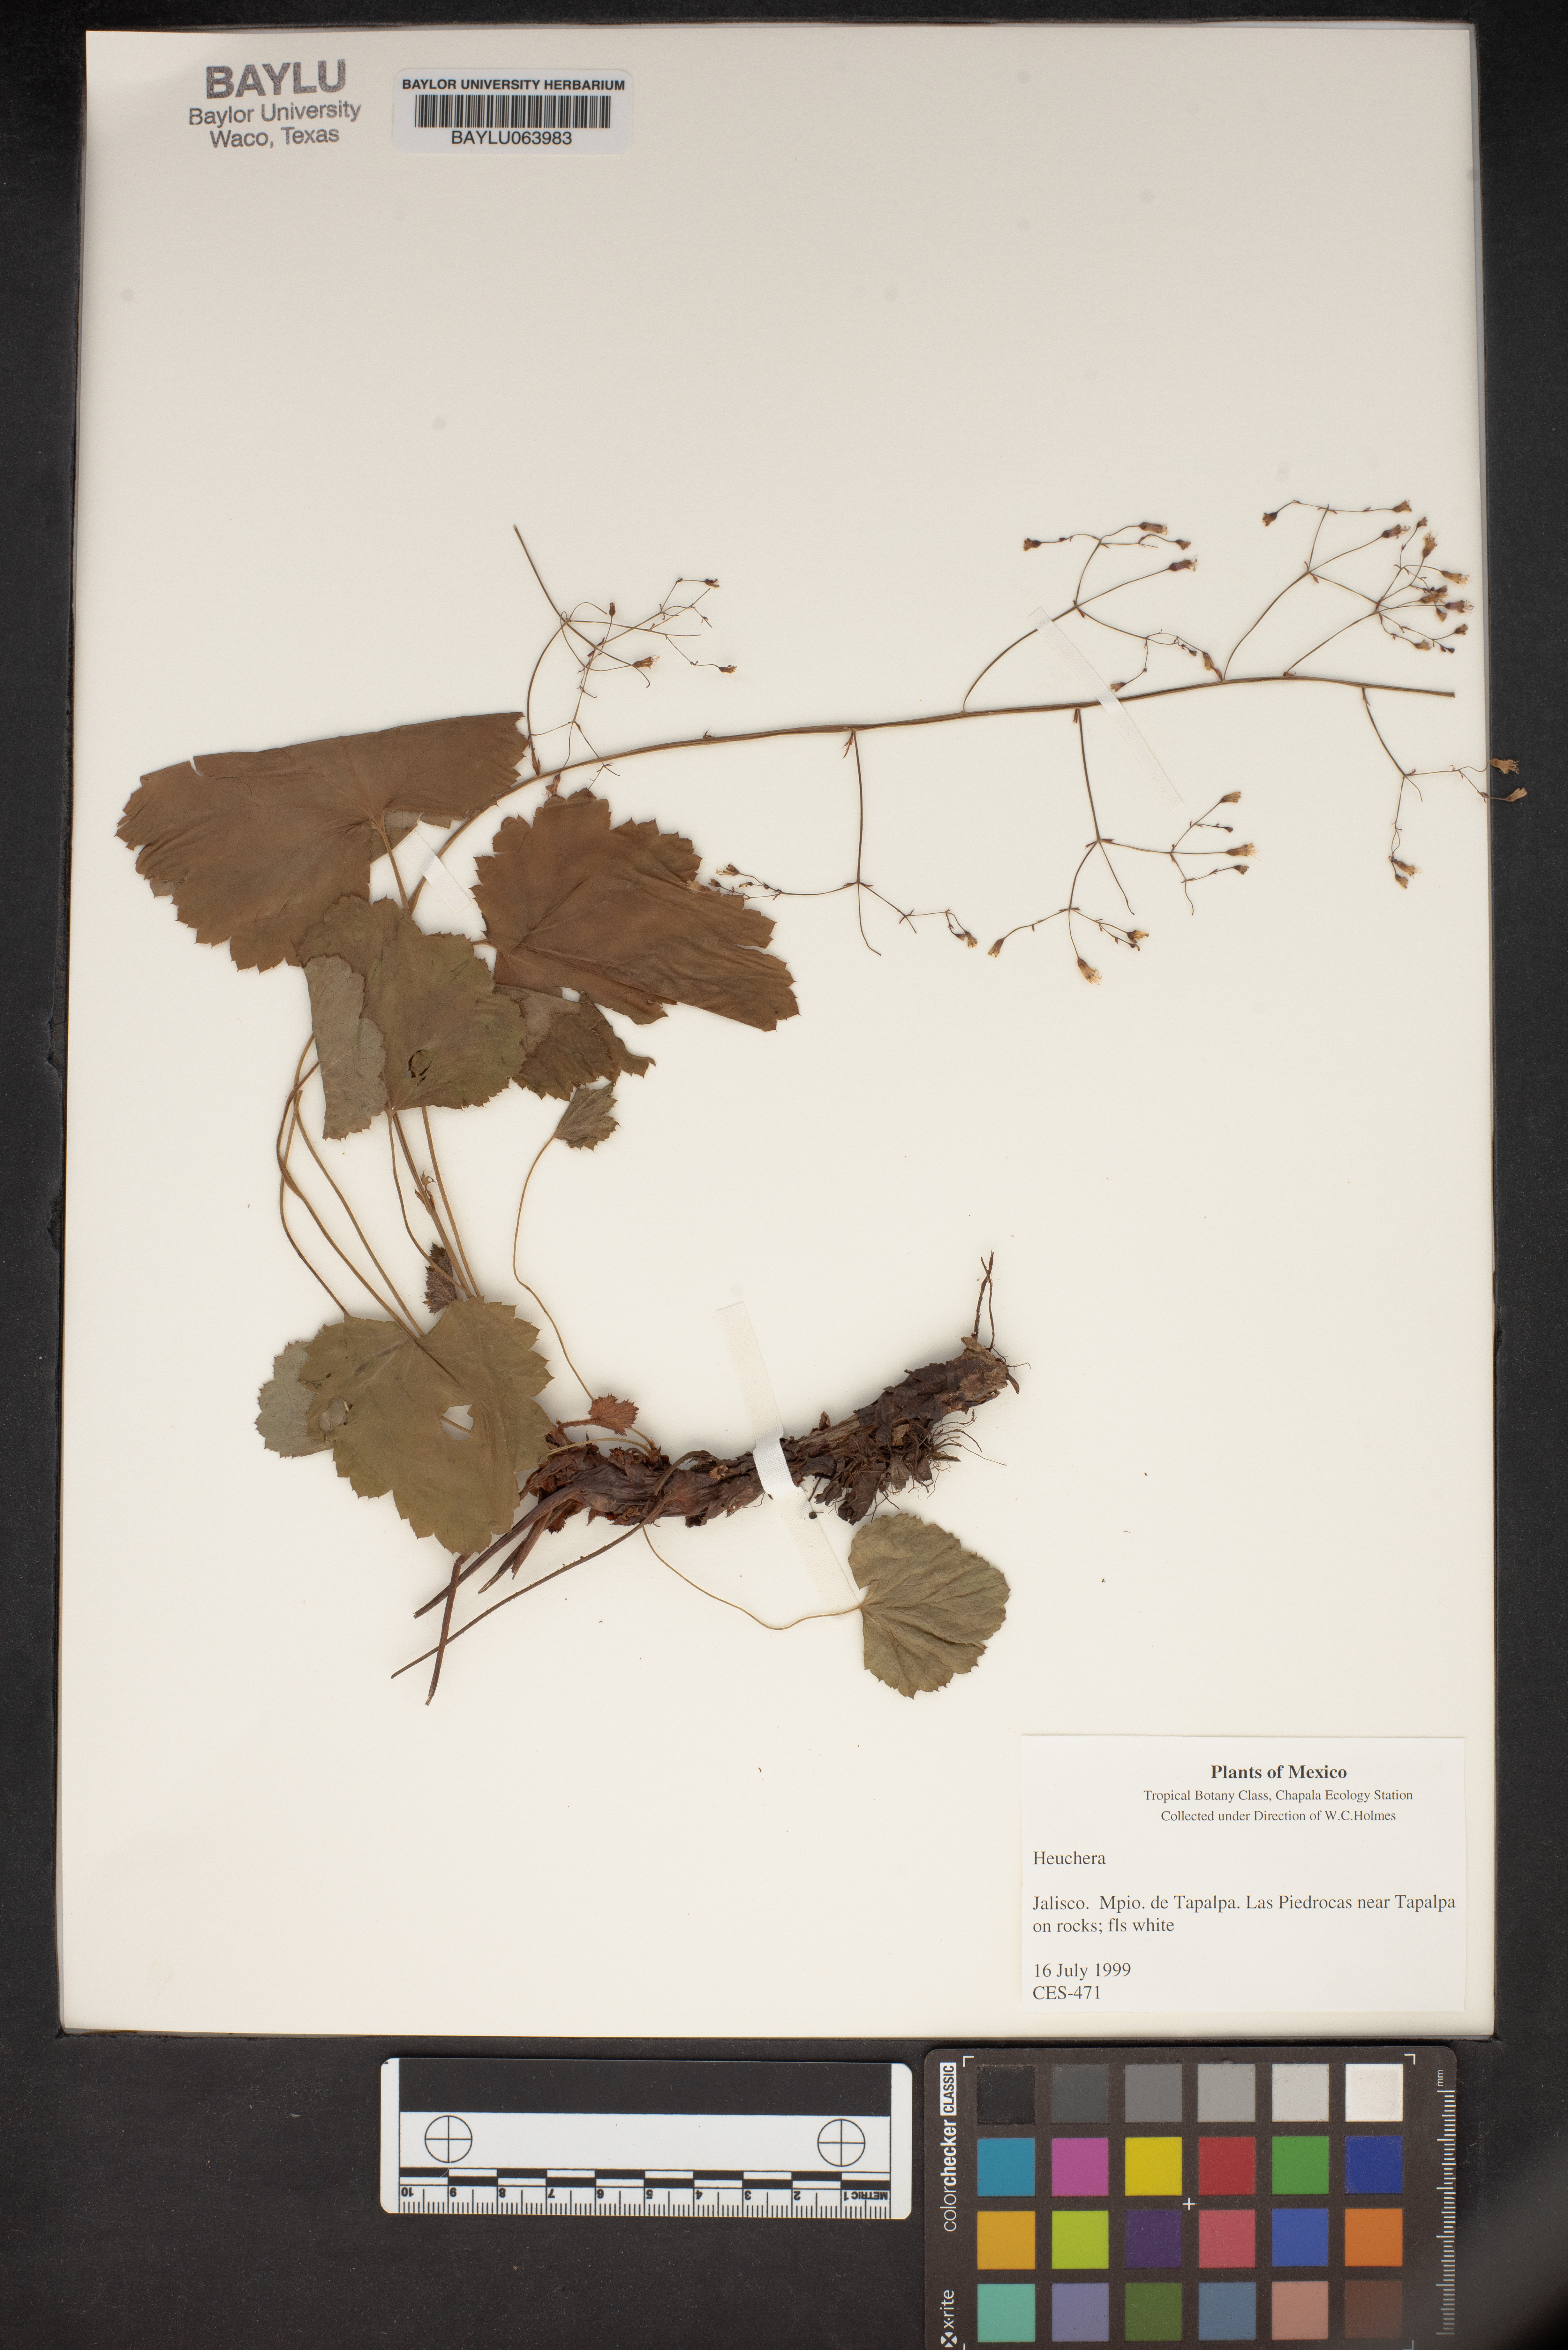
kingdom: Plantae
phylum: Tracheophyta
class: Magnoliopsida
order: Saxifragales
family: Saxifragaceae
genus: Heuchera
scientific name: Heuchera
